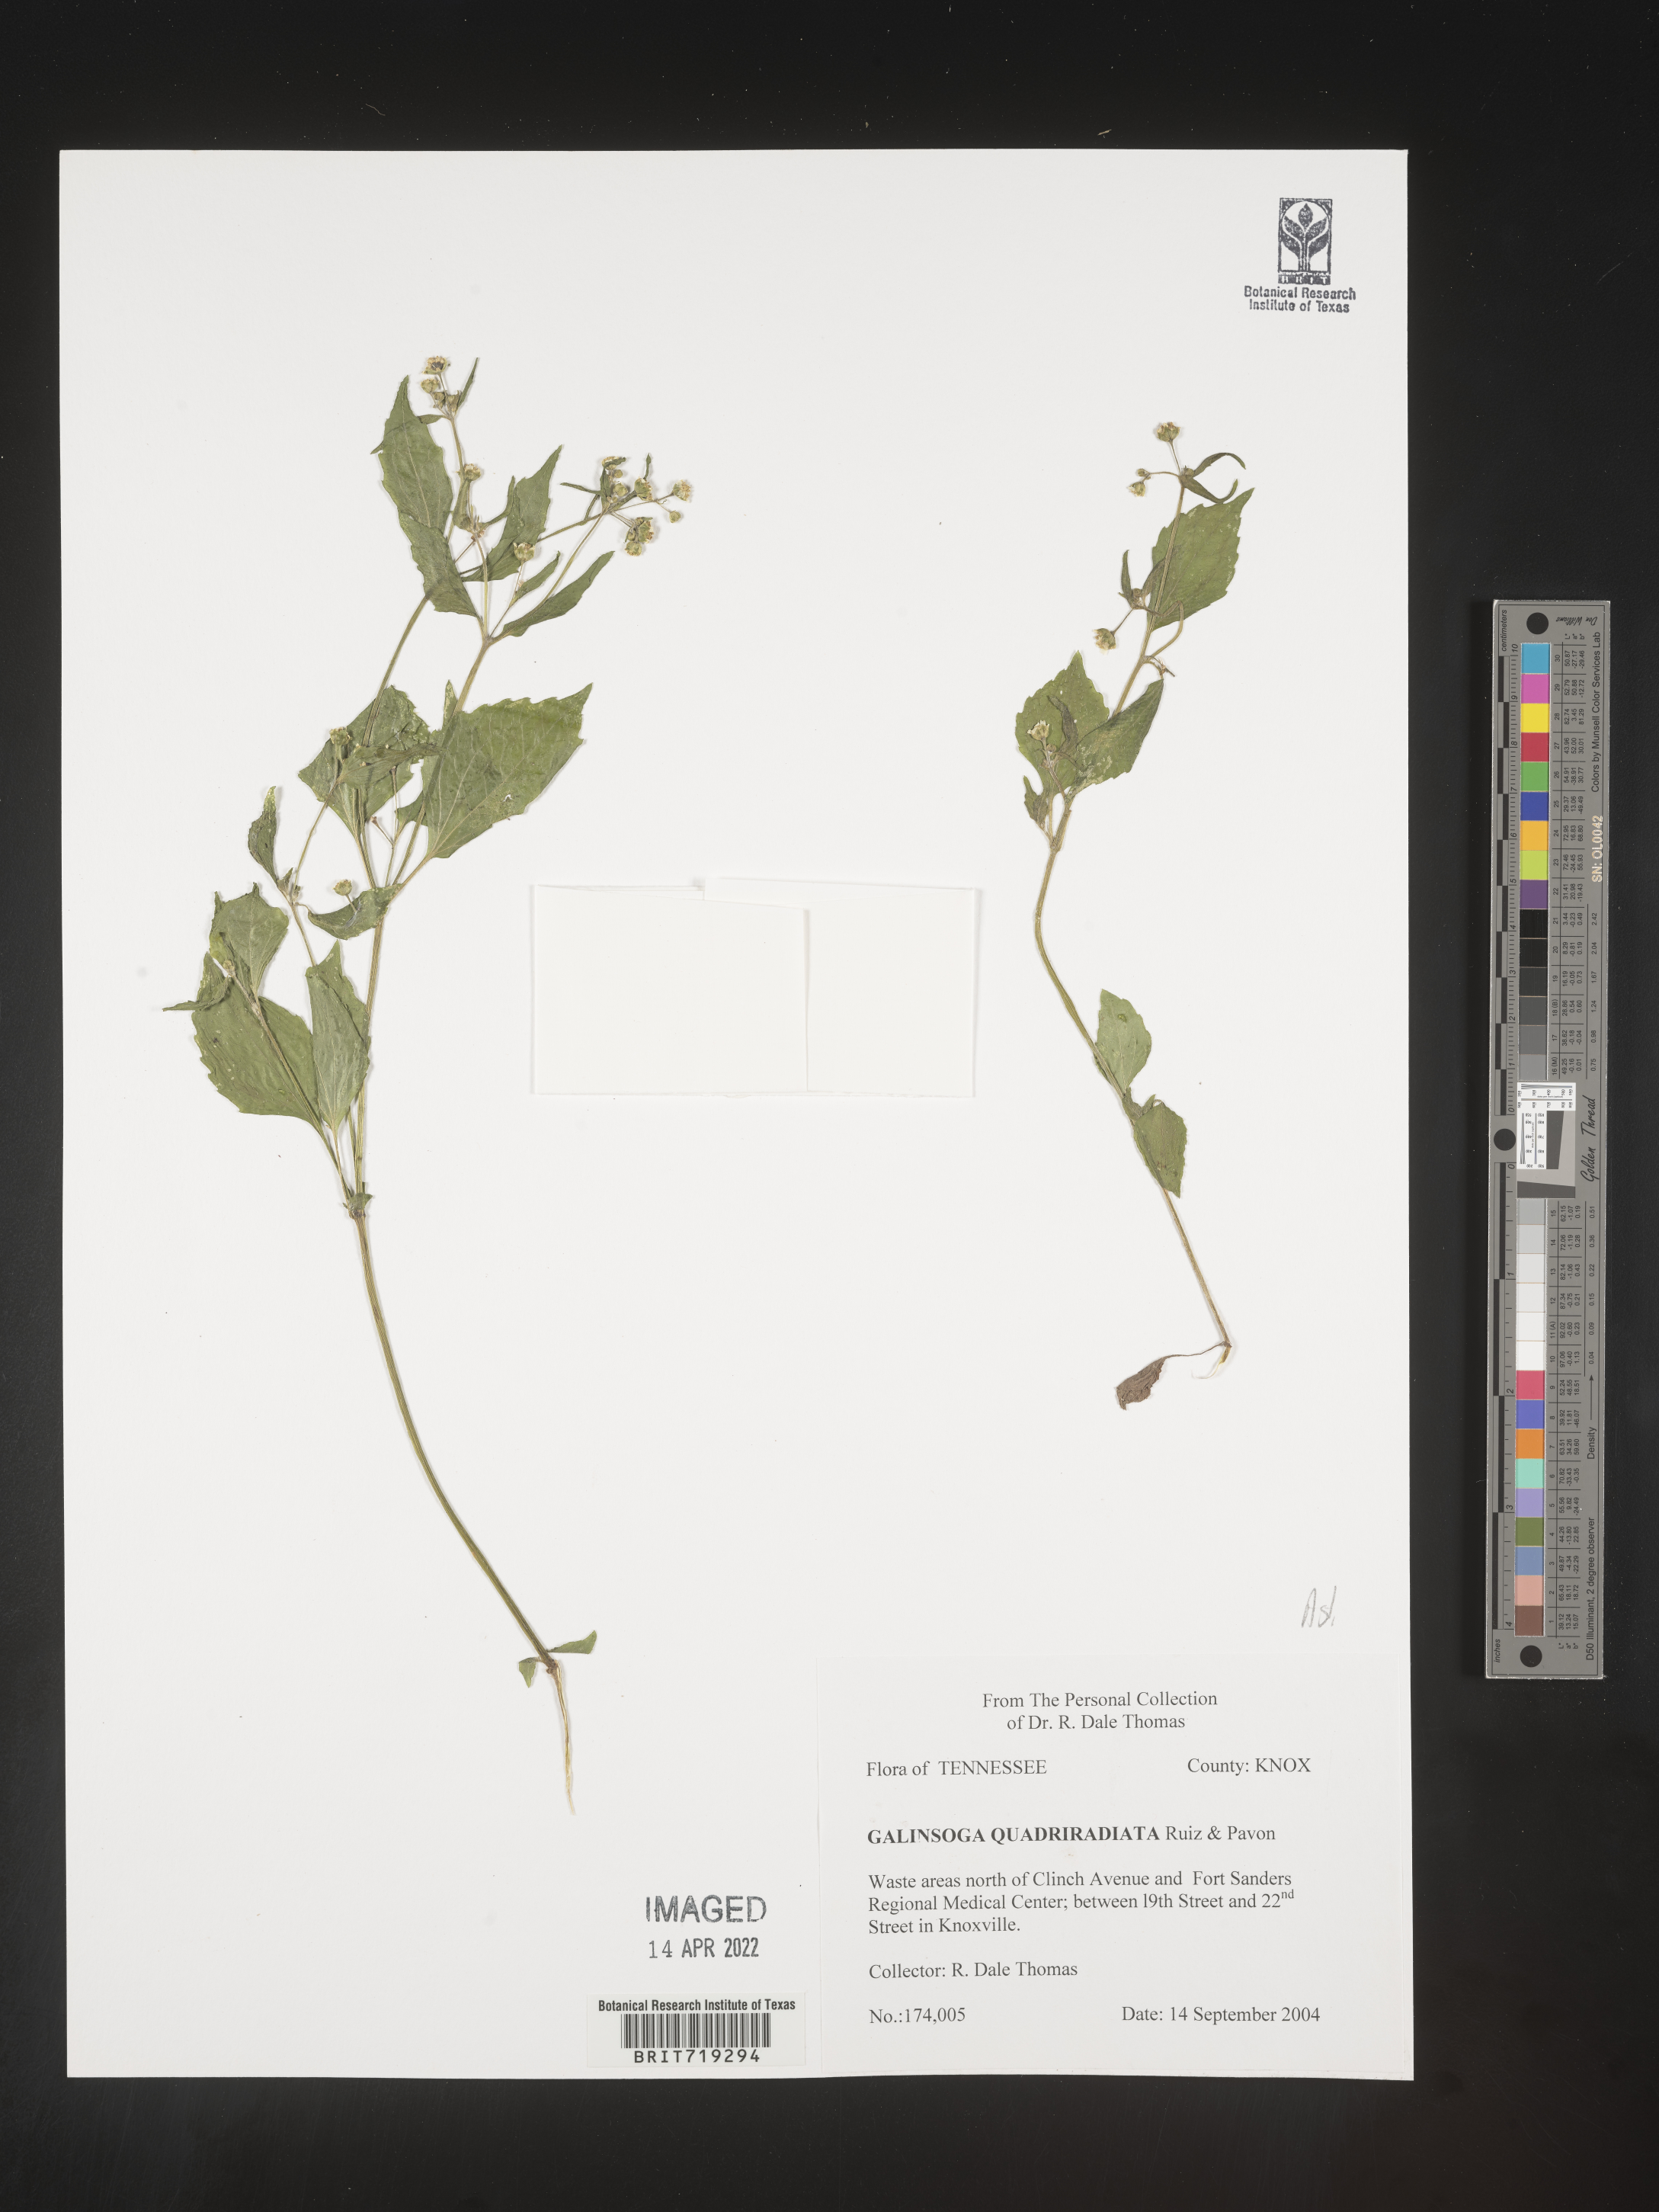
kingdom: Plantae
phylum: Tracheophyta
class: Magnoliopsida
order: Asterales
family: Asteraceae
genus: Galinsoga
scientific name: Galinsoga
